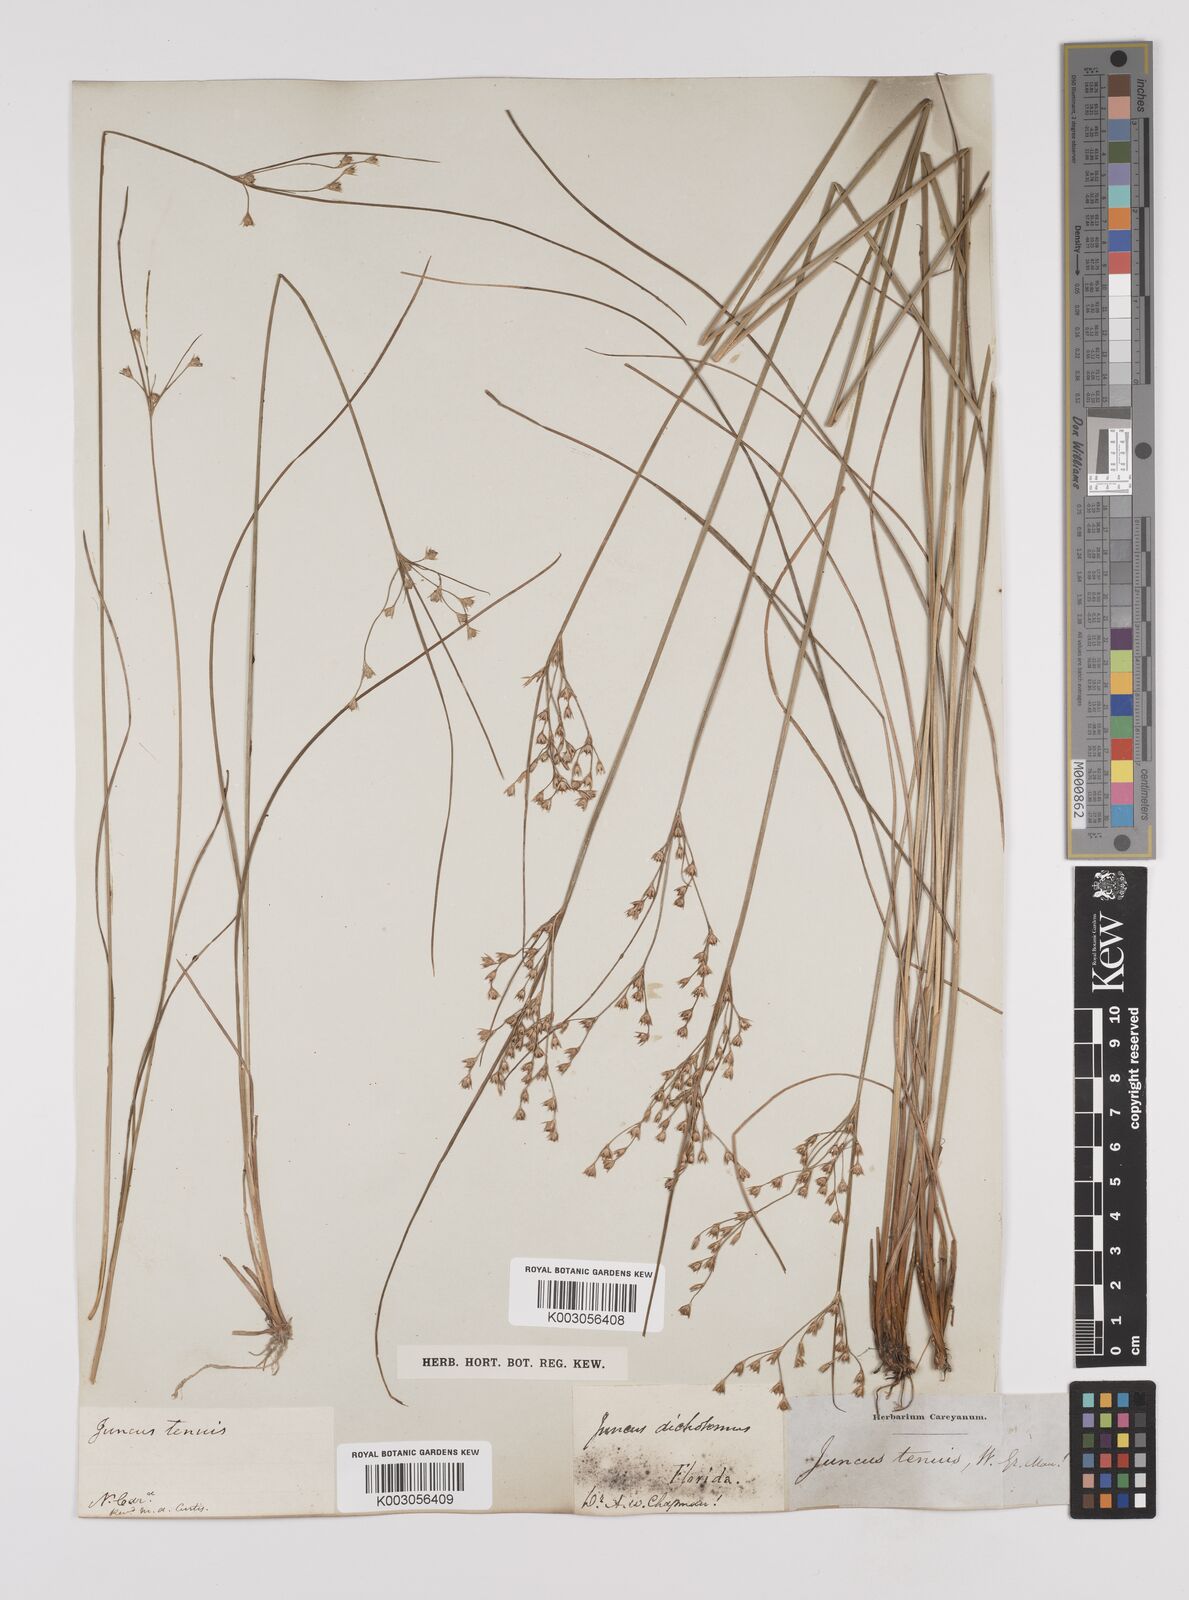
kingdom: Plantae
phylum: Tracheophyta
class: Liliopsida
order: Poales
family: Juncaceae
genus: Juncus
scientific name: Juncus tenuis
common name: Slender rush
